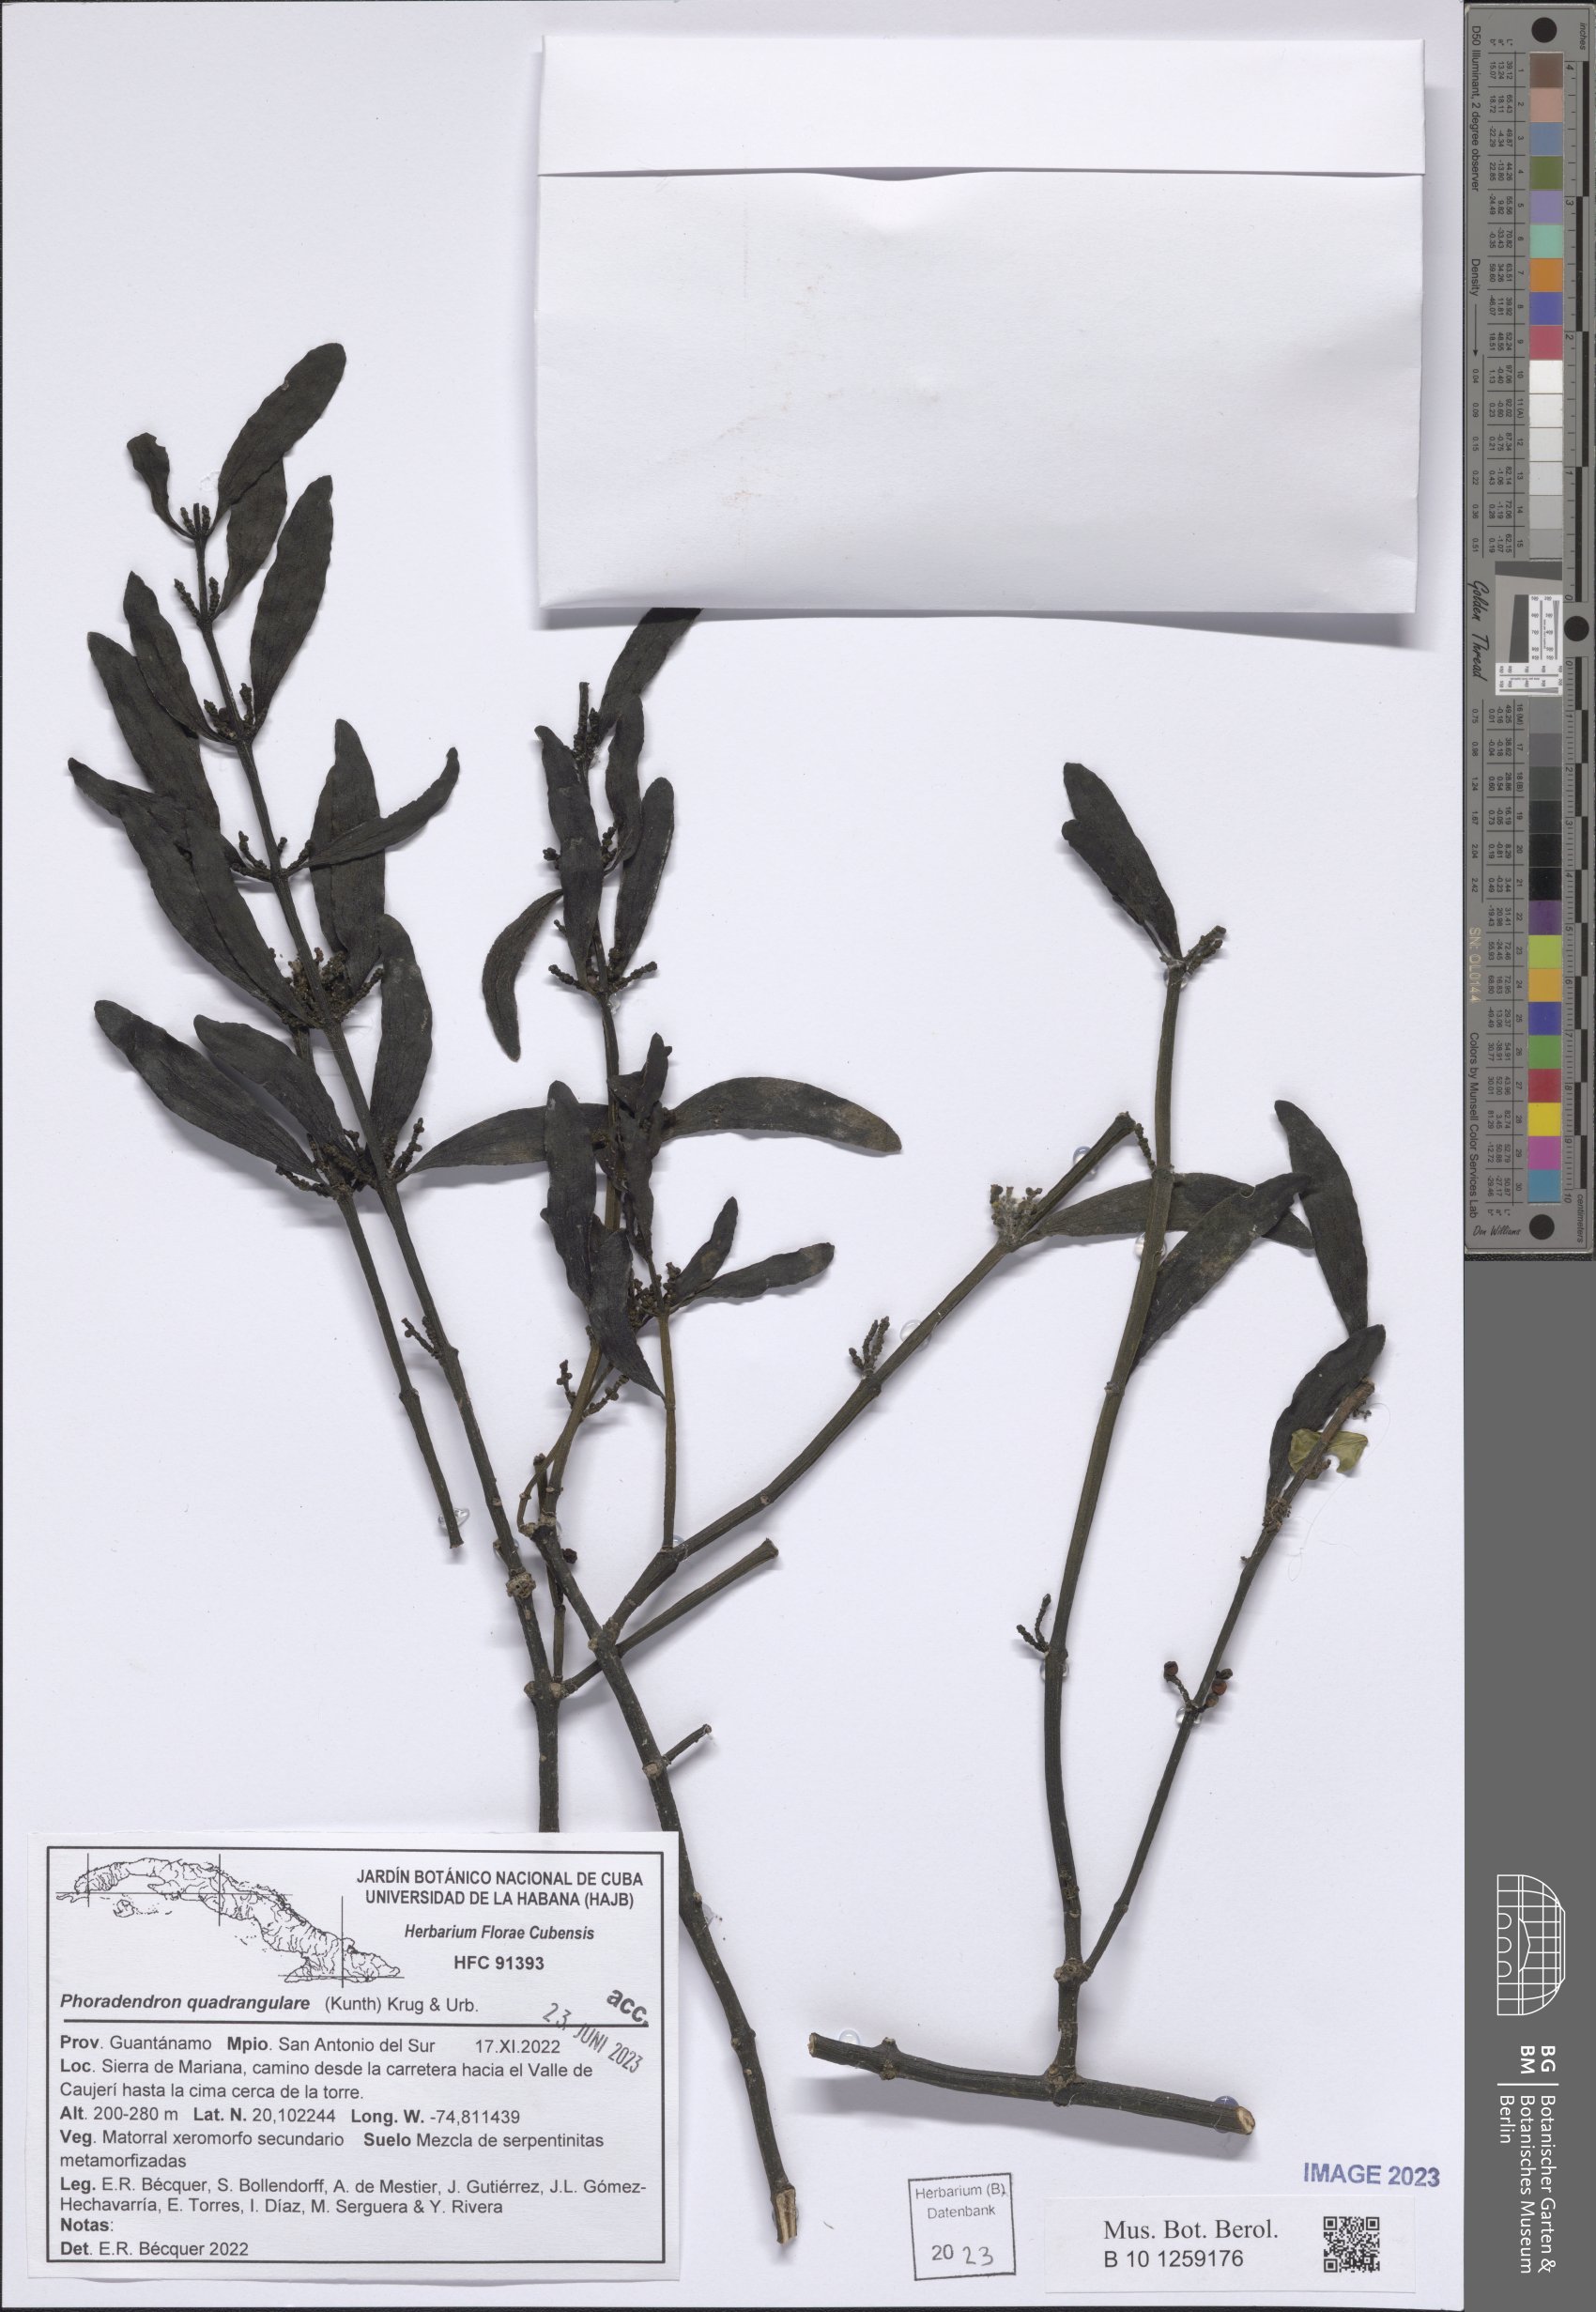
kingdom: Plantae
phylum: Tracheophyta
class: Magnoliopsida
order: Santalales
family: Viscaceae
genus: Phoradendron
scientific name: Phoradendron quadrangulare
